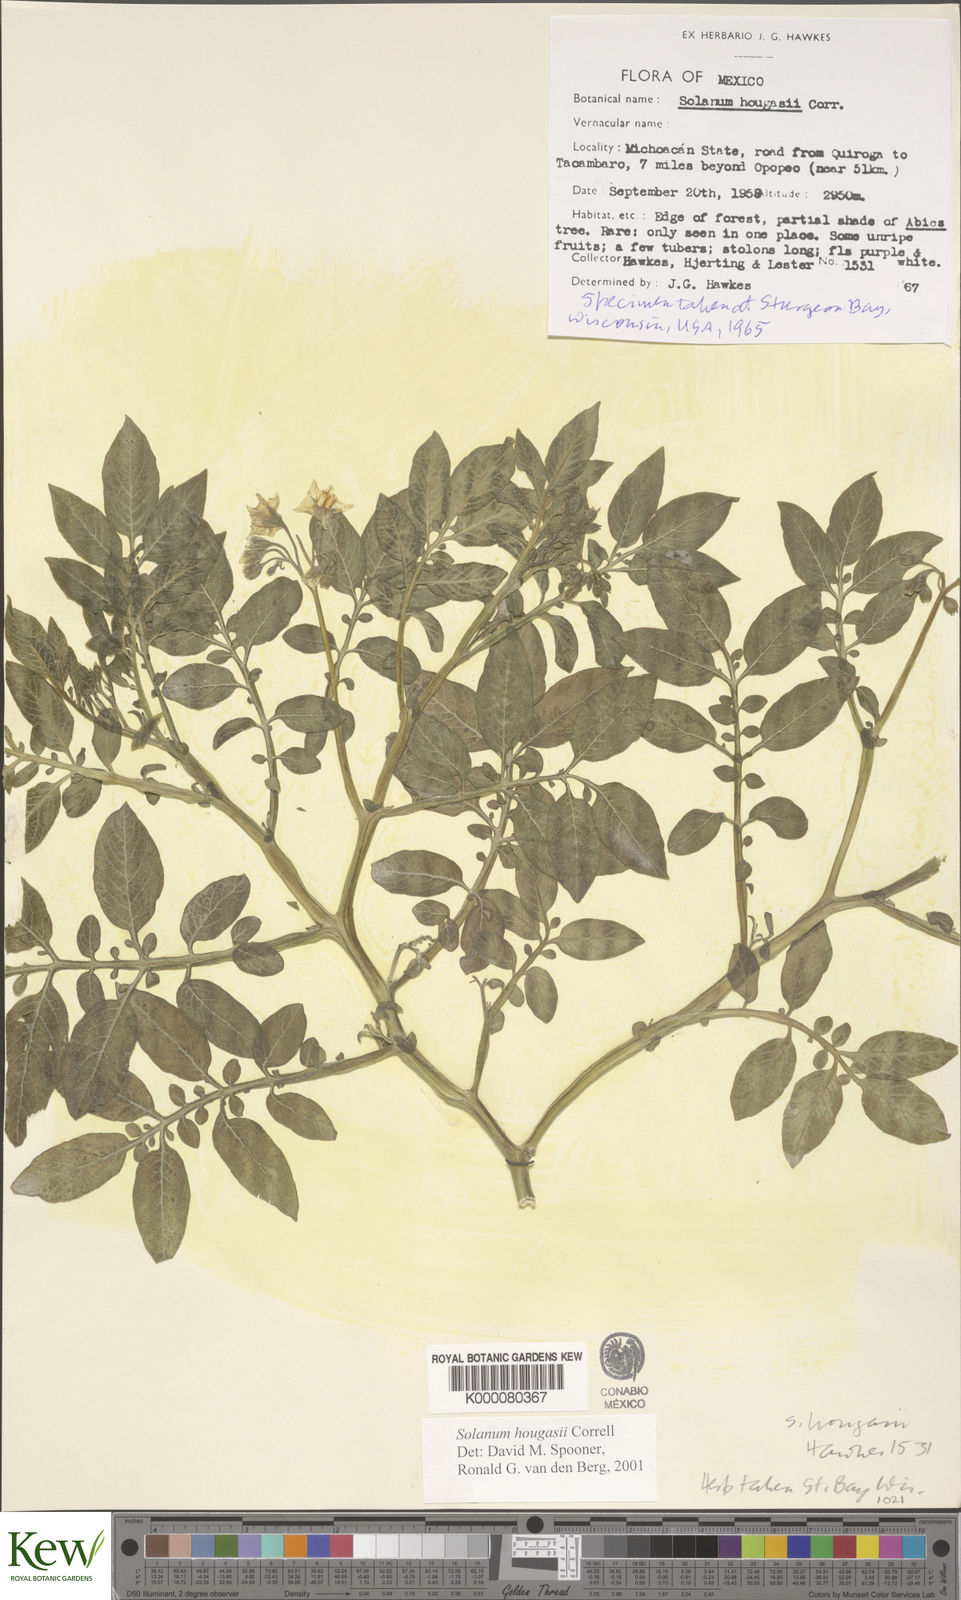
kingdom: Plantae
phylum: Tracheophyta
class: Magnoliopsida
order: Solanales
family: Solanaceae
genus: Solanum
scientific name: Solanum hougasii
